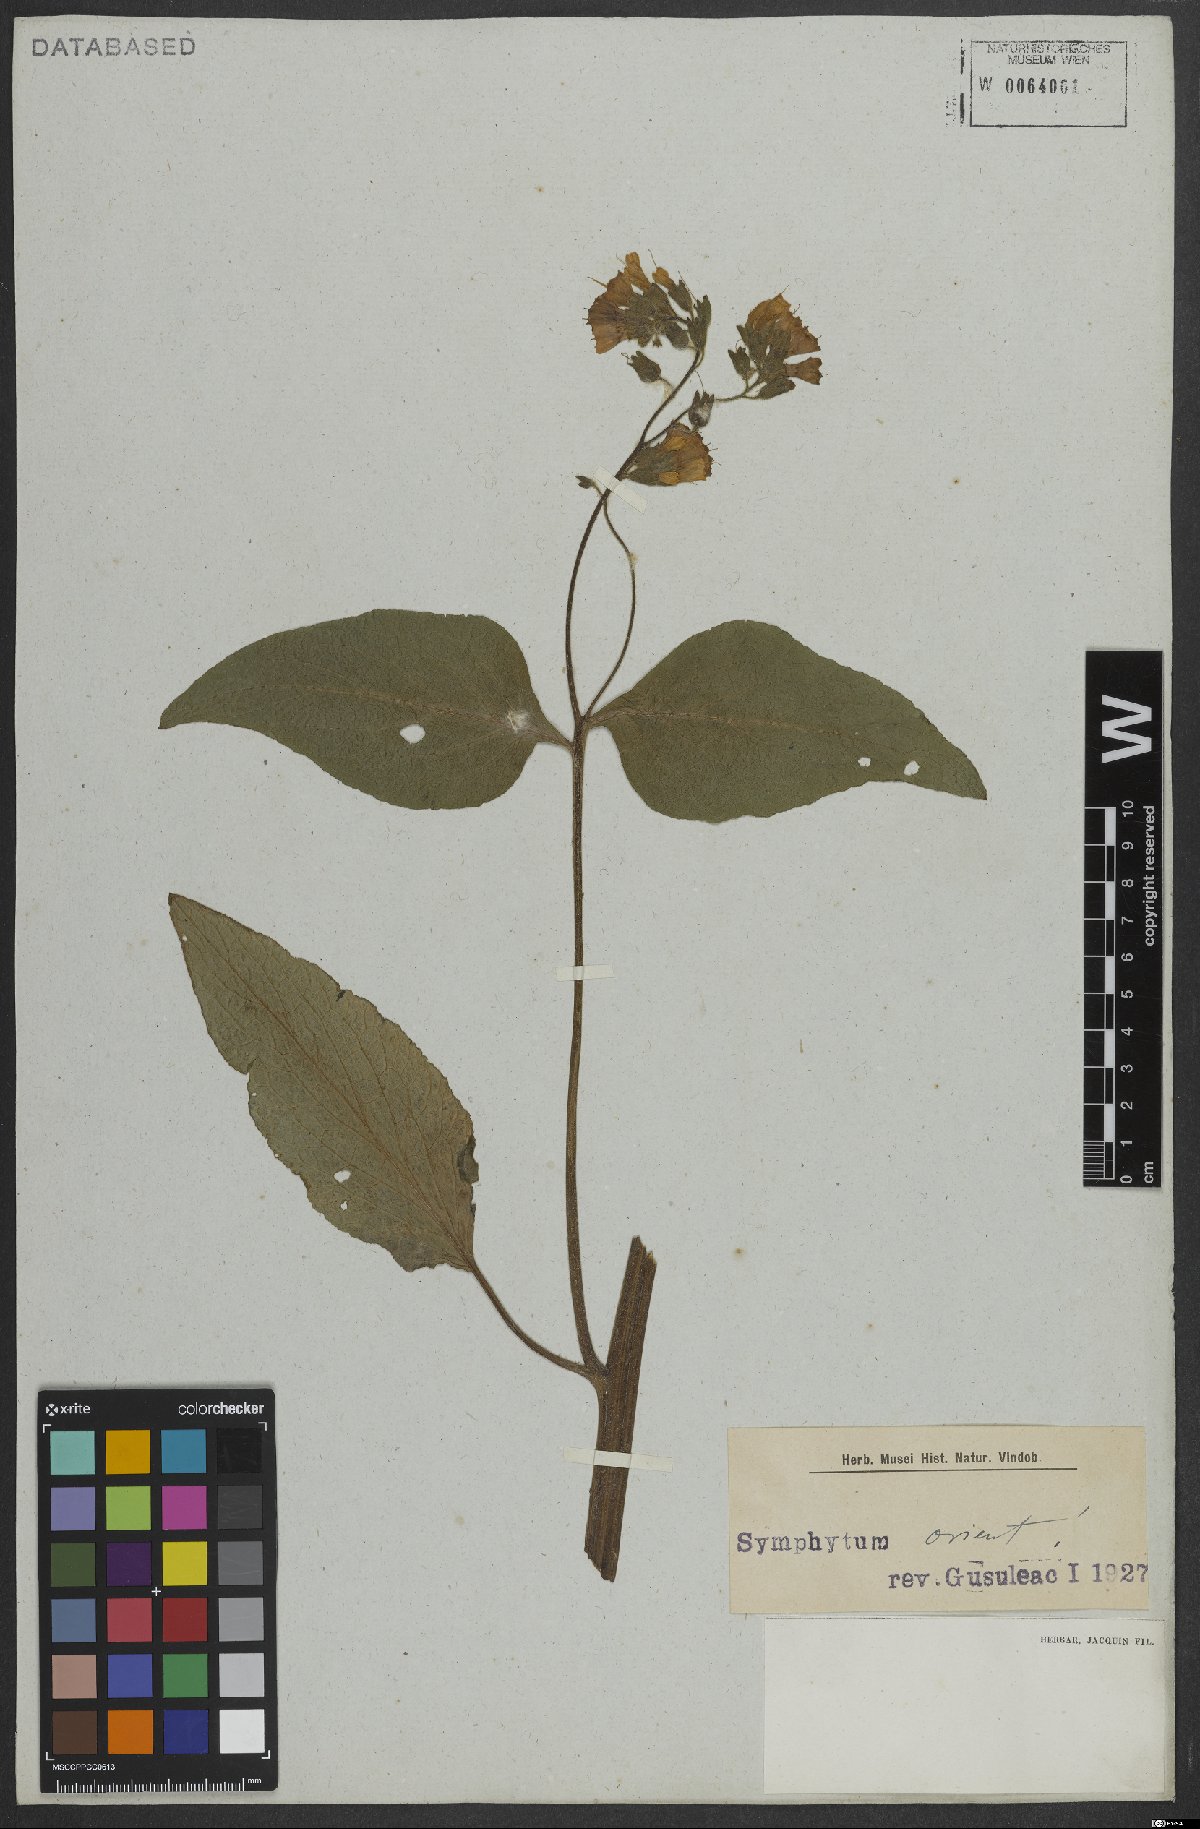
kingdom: Plantae
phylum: Tracheophyta
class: Magnoliopsida
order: Boraginales
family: Boraginaceae
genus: Symphytum
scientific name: Symphytum orientale
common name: White comfrey
